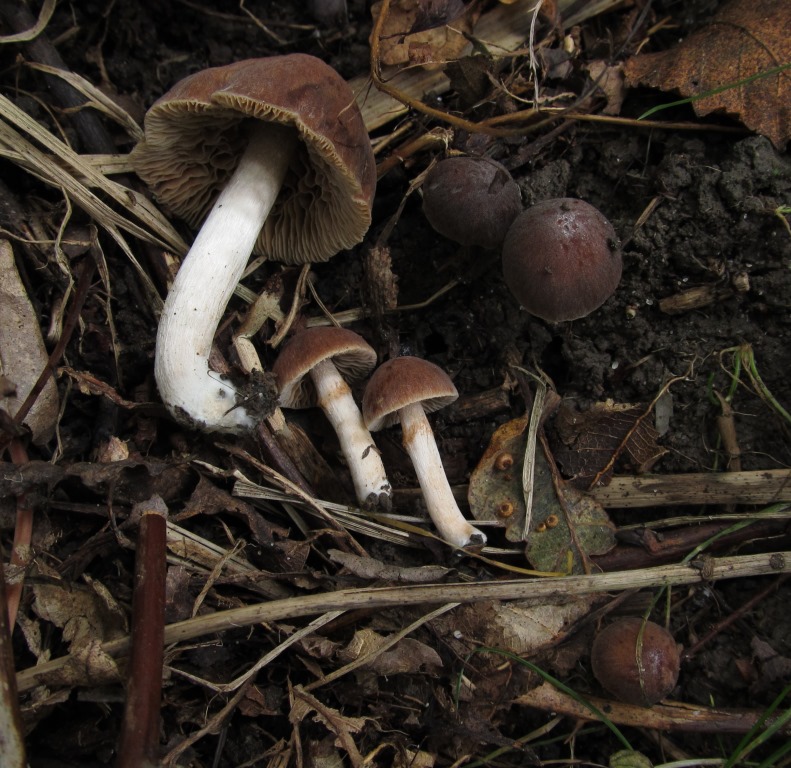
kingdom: Fungi
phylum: Basidiomycota
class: Agaricomycetes
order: Agaricales
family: Hymenogastraceae
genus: Naucoria
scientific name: Naucoria salicis
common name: pile-knaphat
